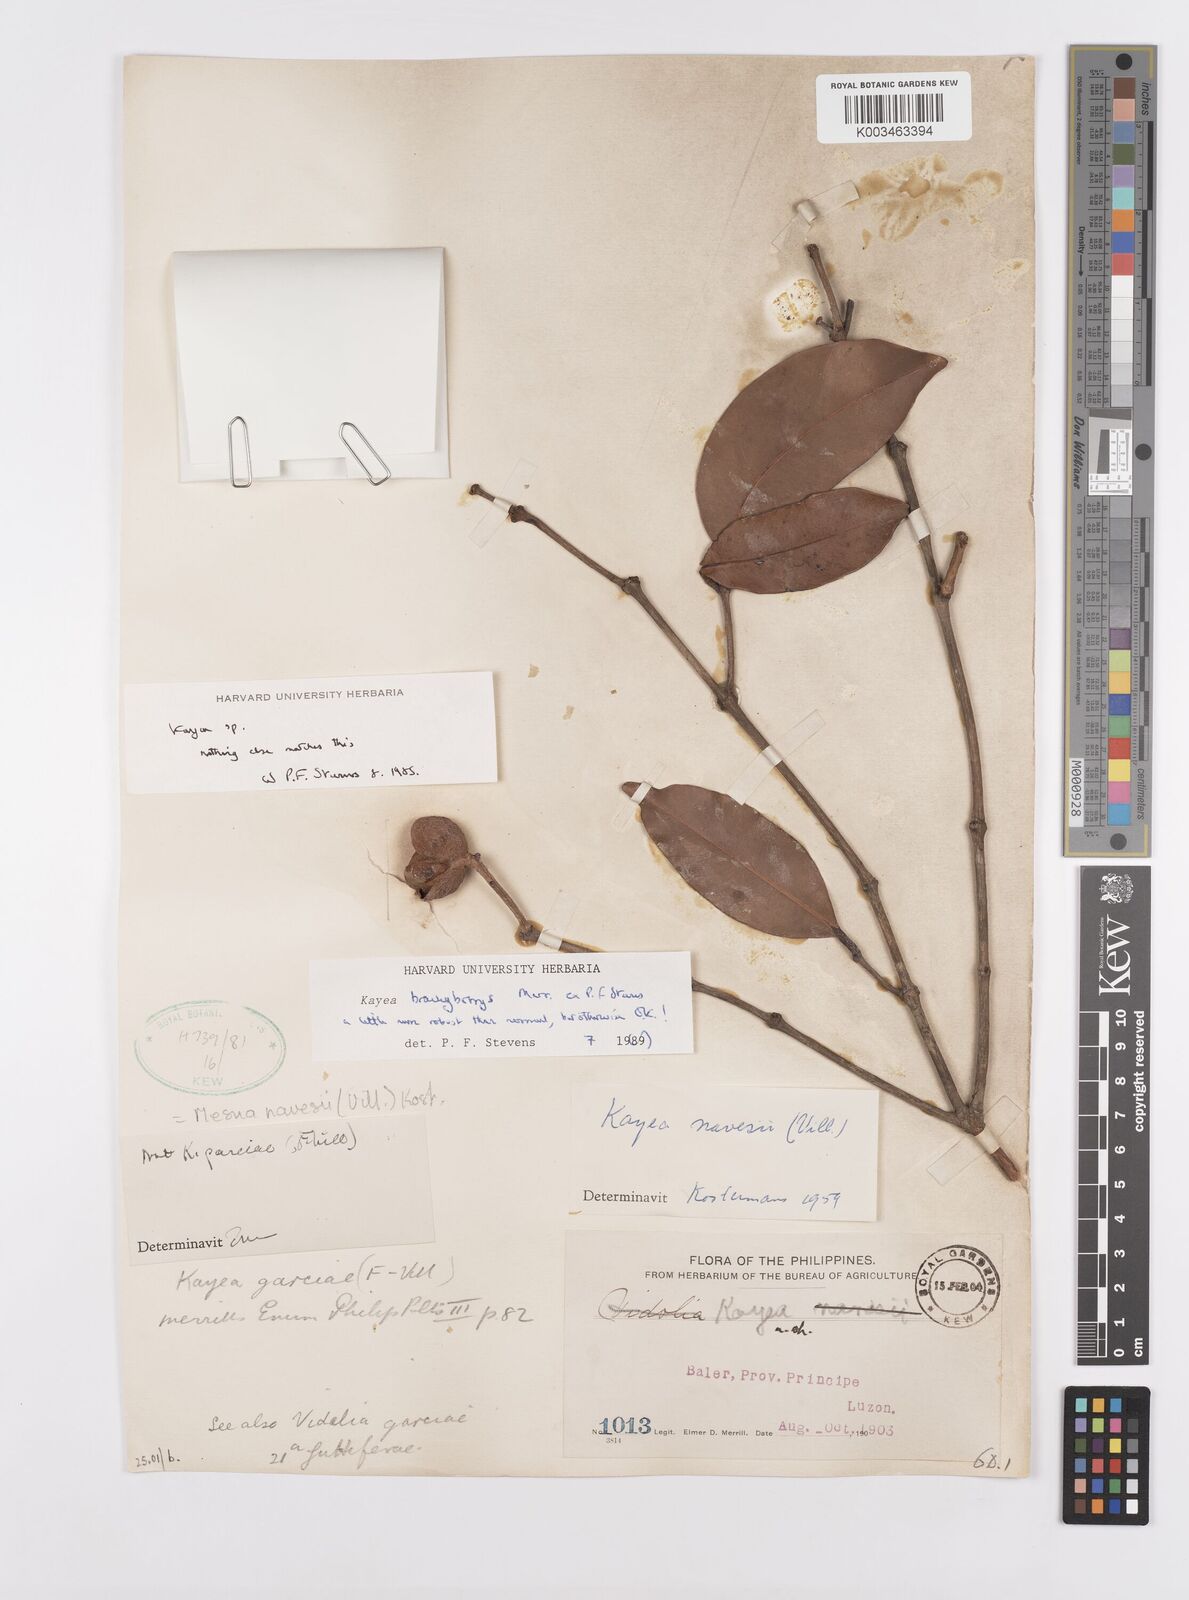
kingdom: Plantae
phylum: Tracheophyta
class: Magnoliopsida
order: Malpighiales
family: Calophyllaceae
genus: Kayea
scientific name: Kayea
